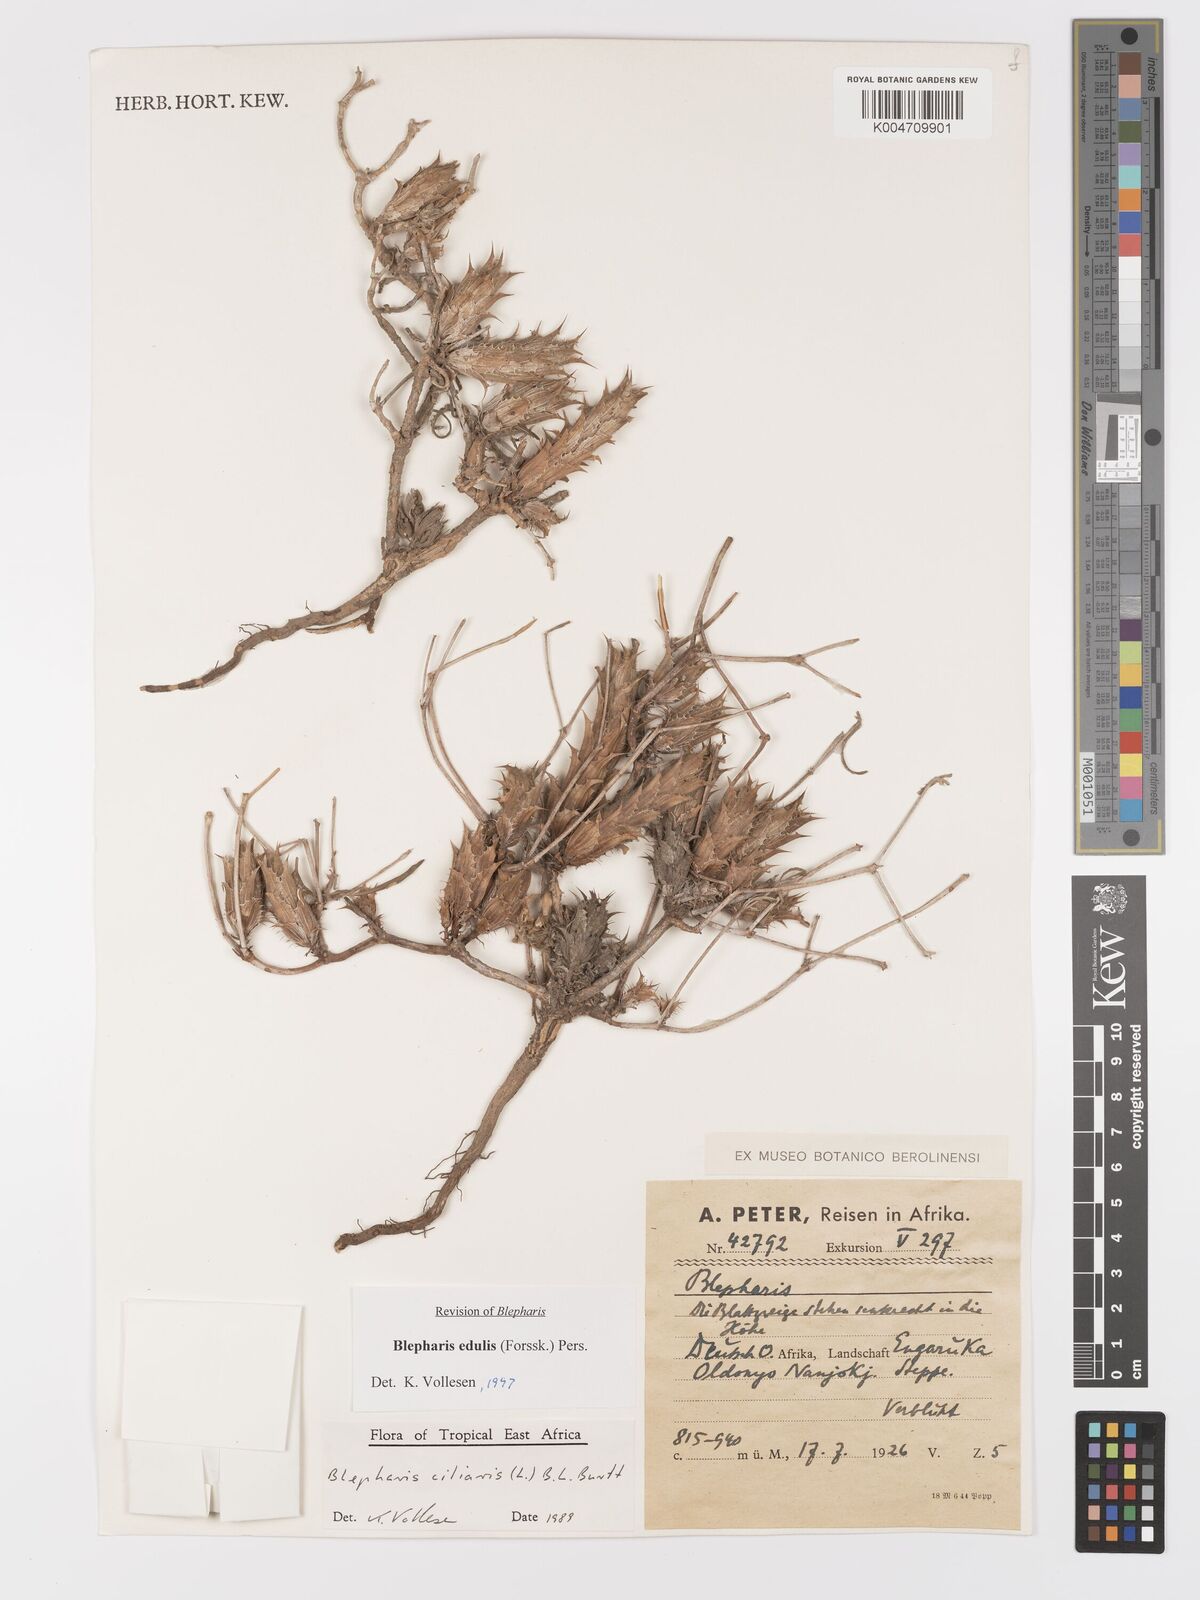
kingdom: Plantae
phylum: Tracheophyta
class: Magnoliopsida
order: Lamiales
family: Acanthaceae
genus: Blepharis
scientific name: Blepharis edulis
